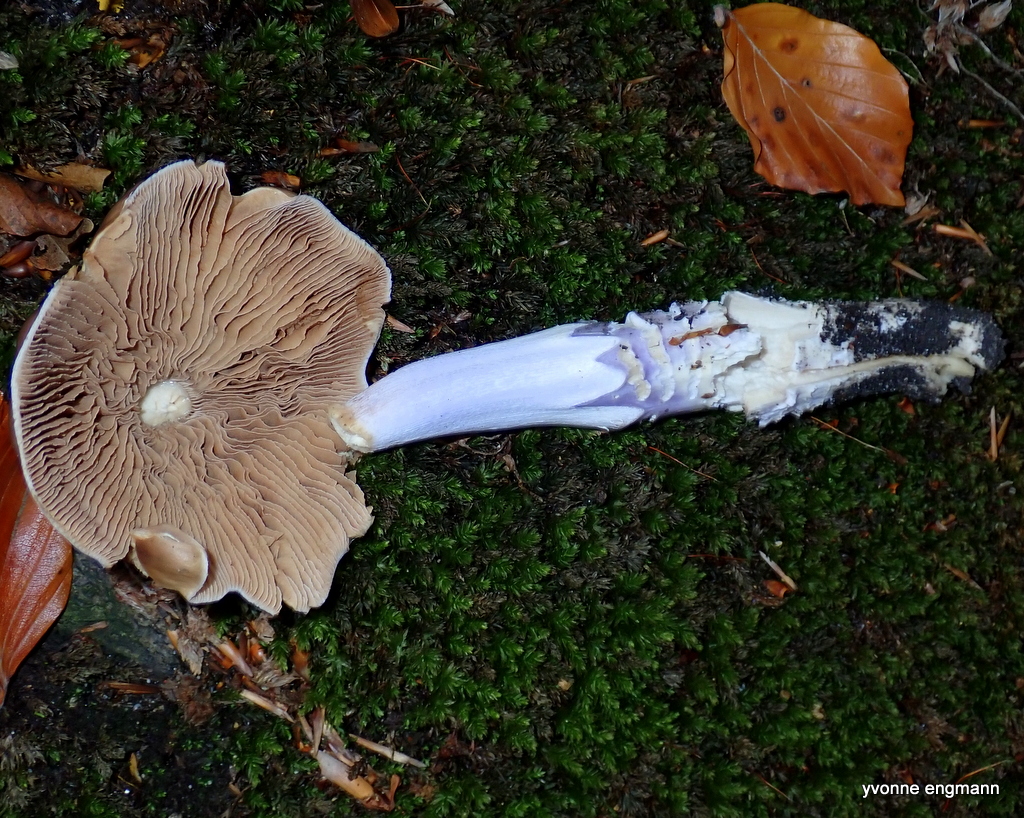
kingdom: Fungi
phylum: Basidiomycota
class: Agaricomycetes
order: Agaricales
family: Cortinariaceae
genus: Cortinarius
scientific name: Cortinarius elatior
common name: høj slørhat
